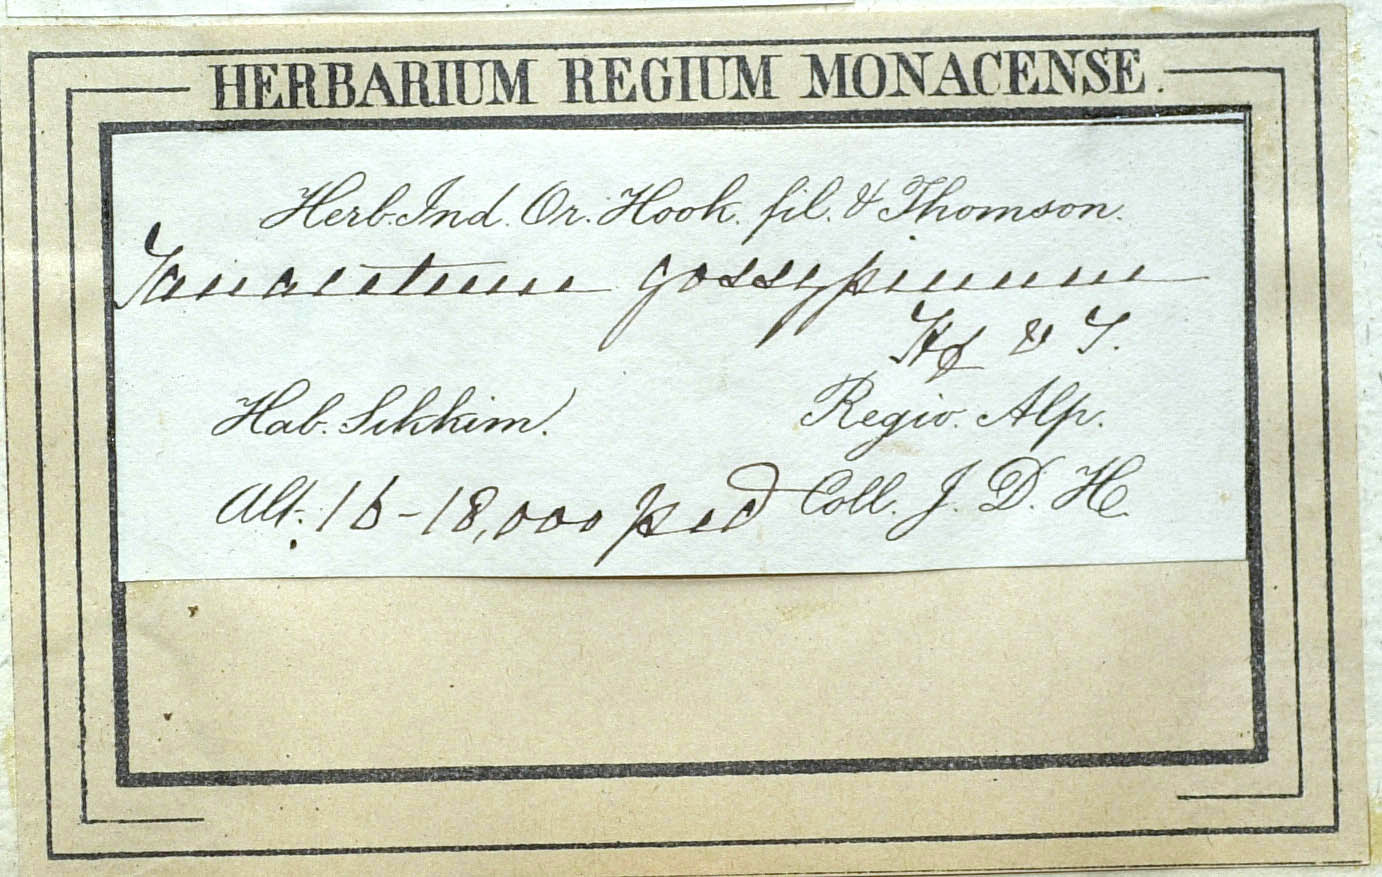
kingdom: Plantae
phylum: Tracheophyta
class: Magnoliopsida
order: Asterales
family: Asteraceae
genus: Hippolytia
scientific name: Hippolytia gossypina
